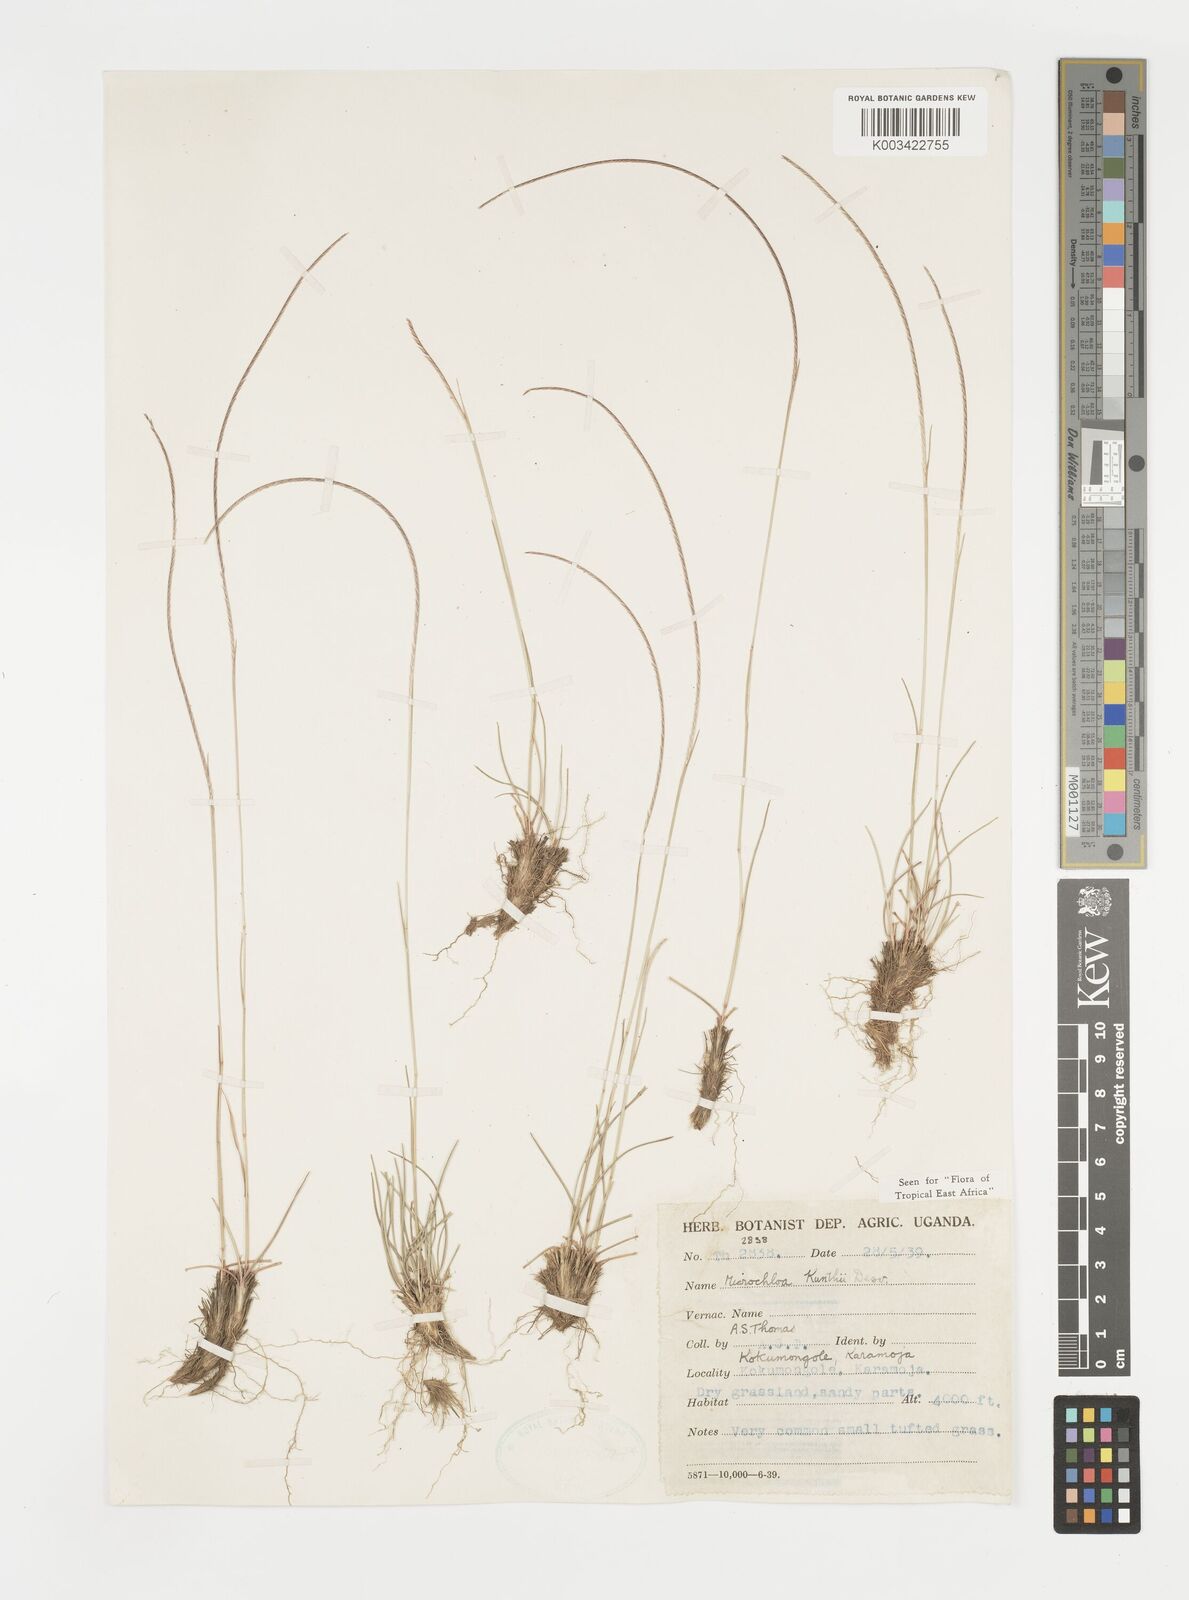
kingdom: Plantae
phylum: Tracheophyta
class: Liliopsida
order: Poales
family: Poaceae
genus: Microchloa
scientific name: Microchloa kunthii
